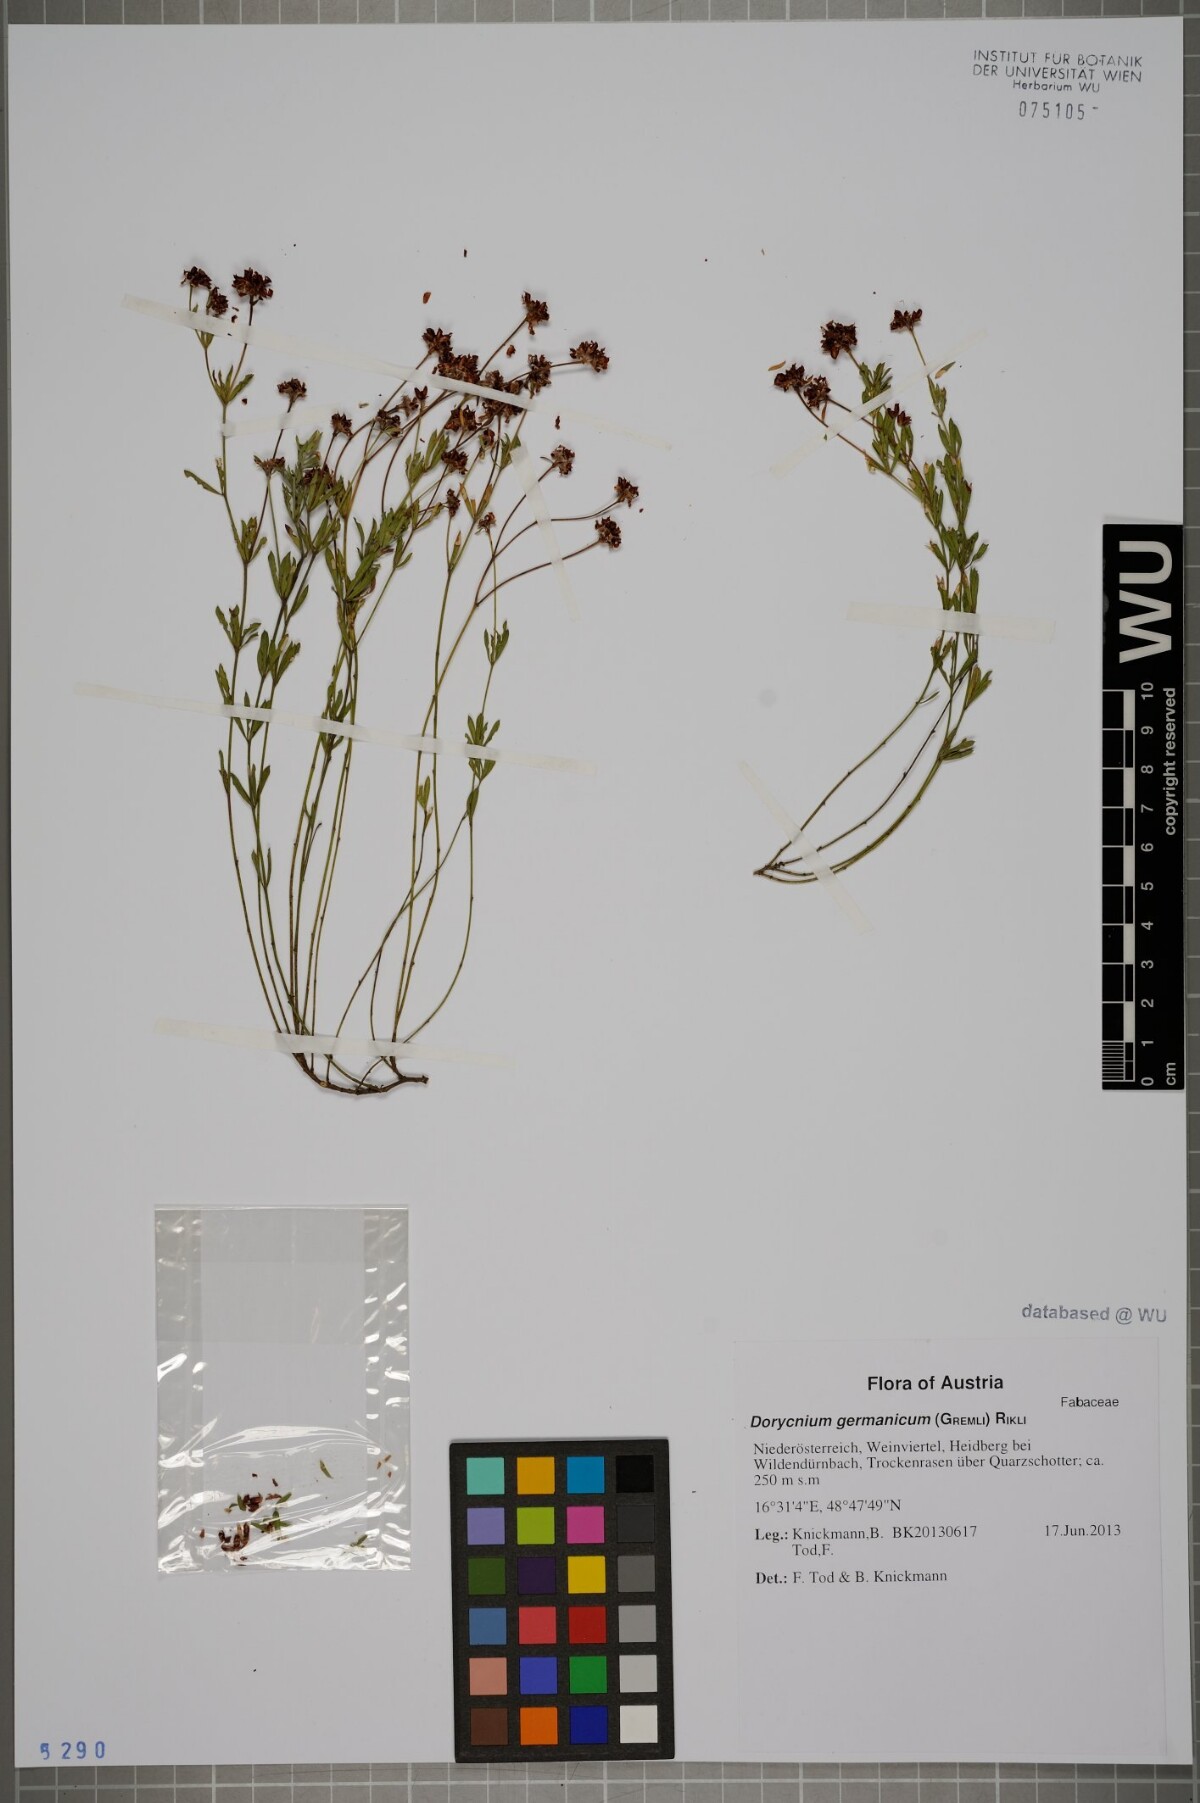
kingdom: Plantae
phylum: Tracheophyta
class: Magnoliopsida
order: Fabales
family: Fabaceae
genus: Lotus
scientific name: Lotus germanicus
